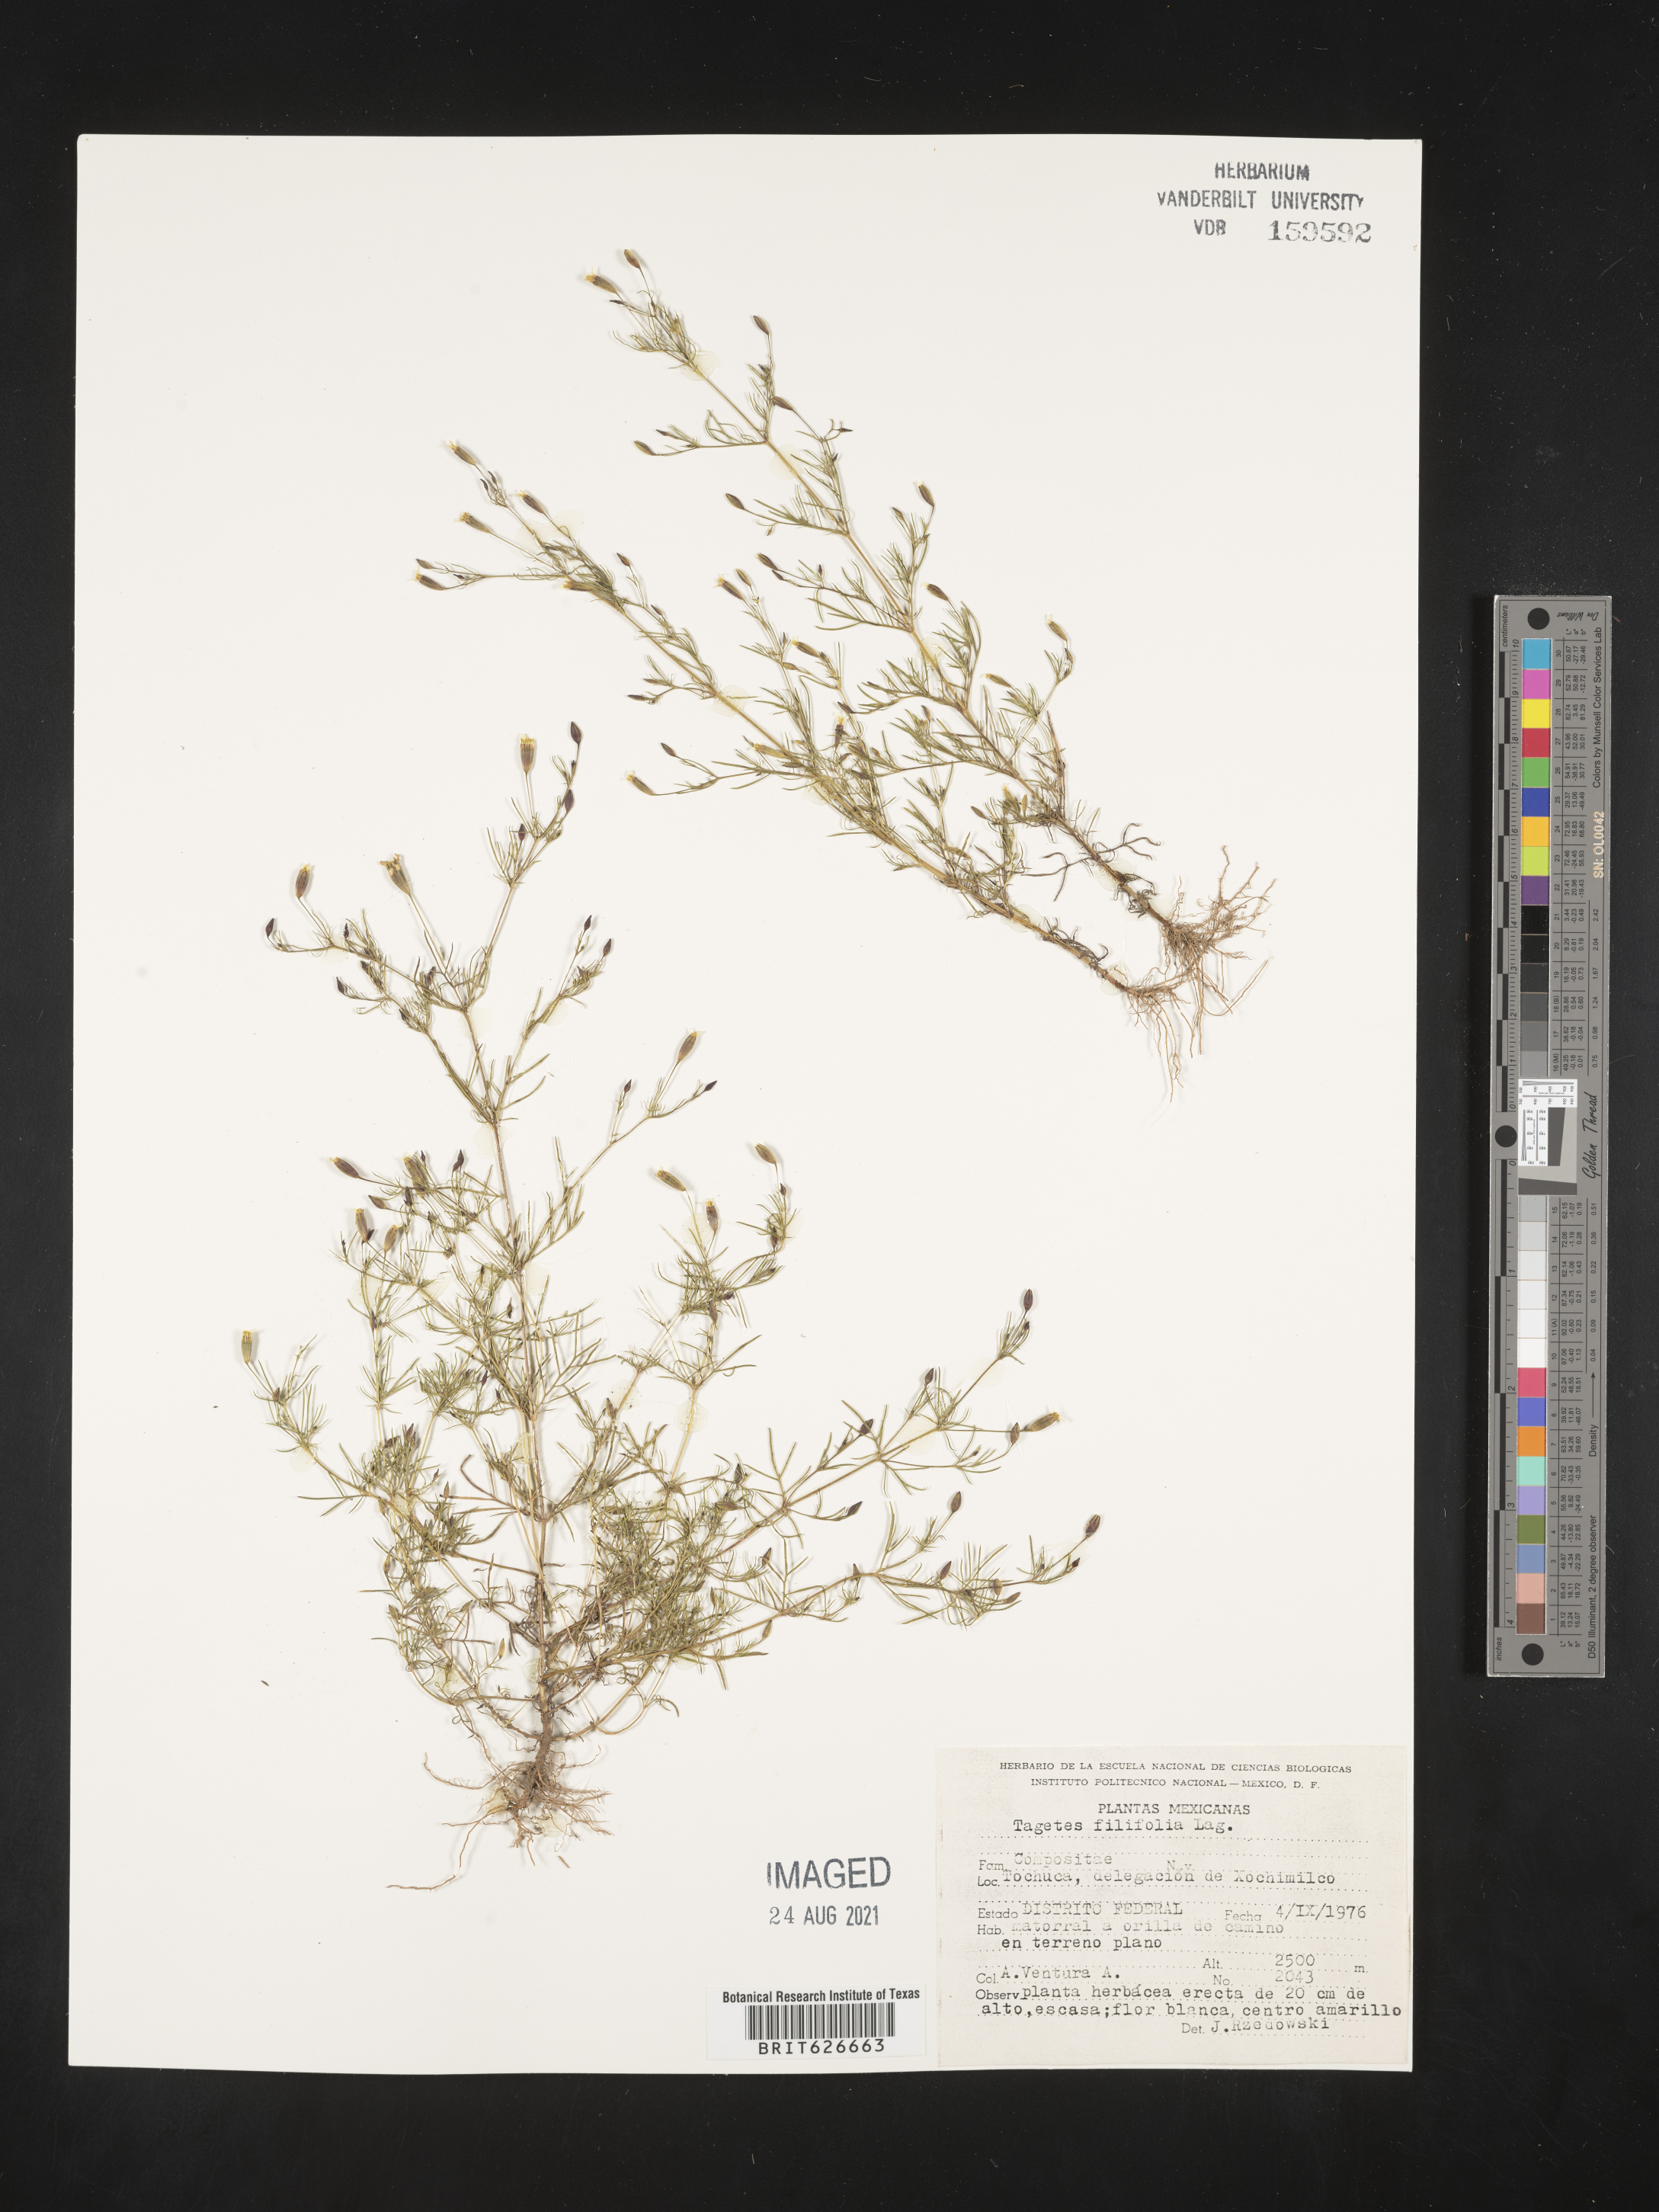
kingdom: Plantae
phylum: Tracheophyta
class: Magnoliopsida
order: Asterales
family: Asteraceae
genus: Tagetes
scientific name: Tagetes
